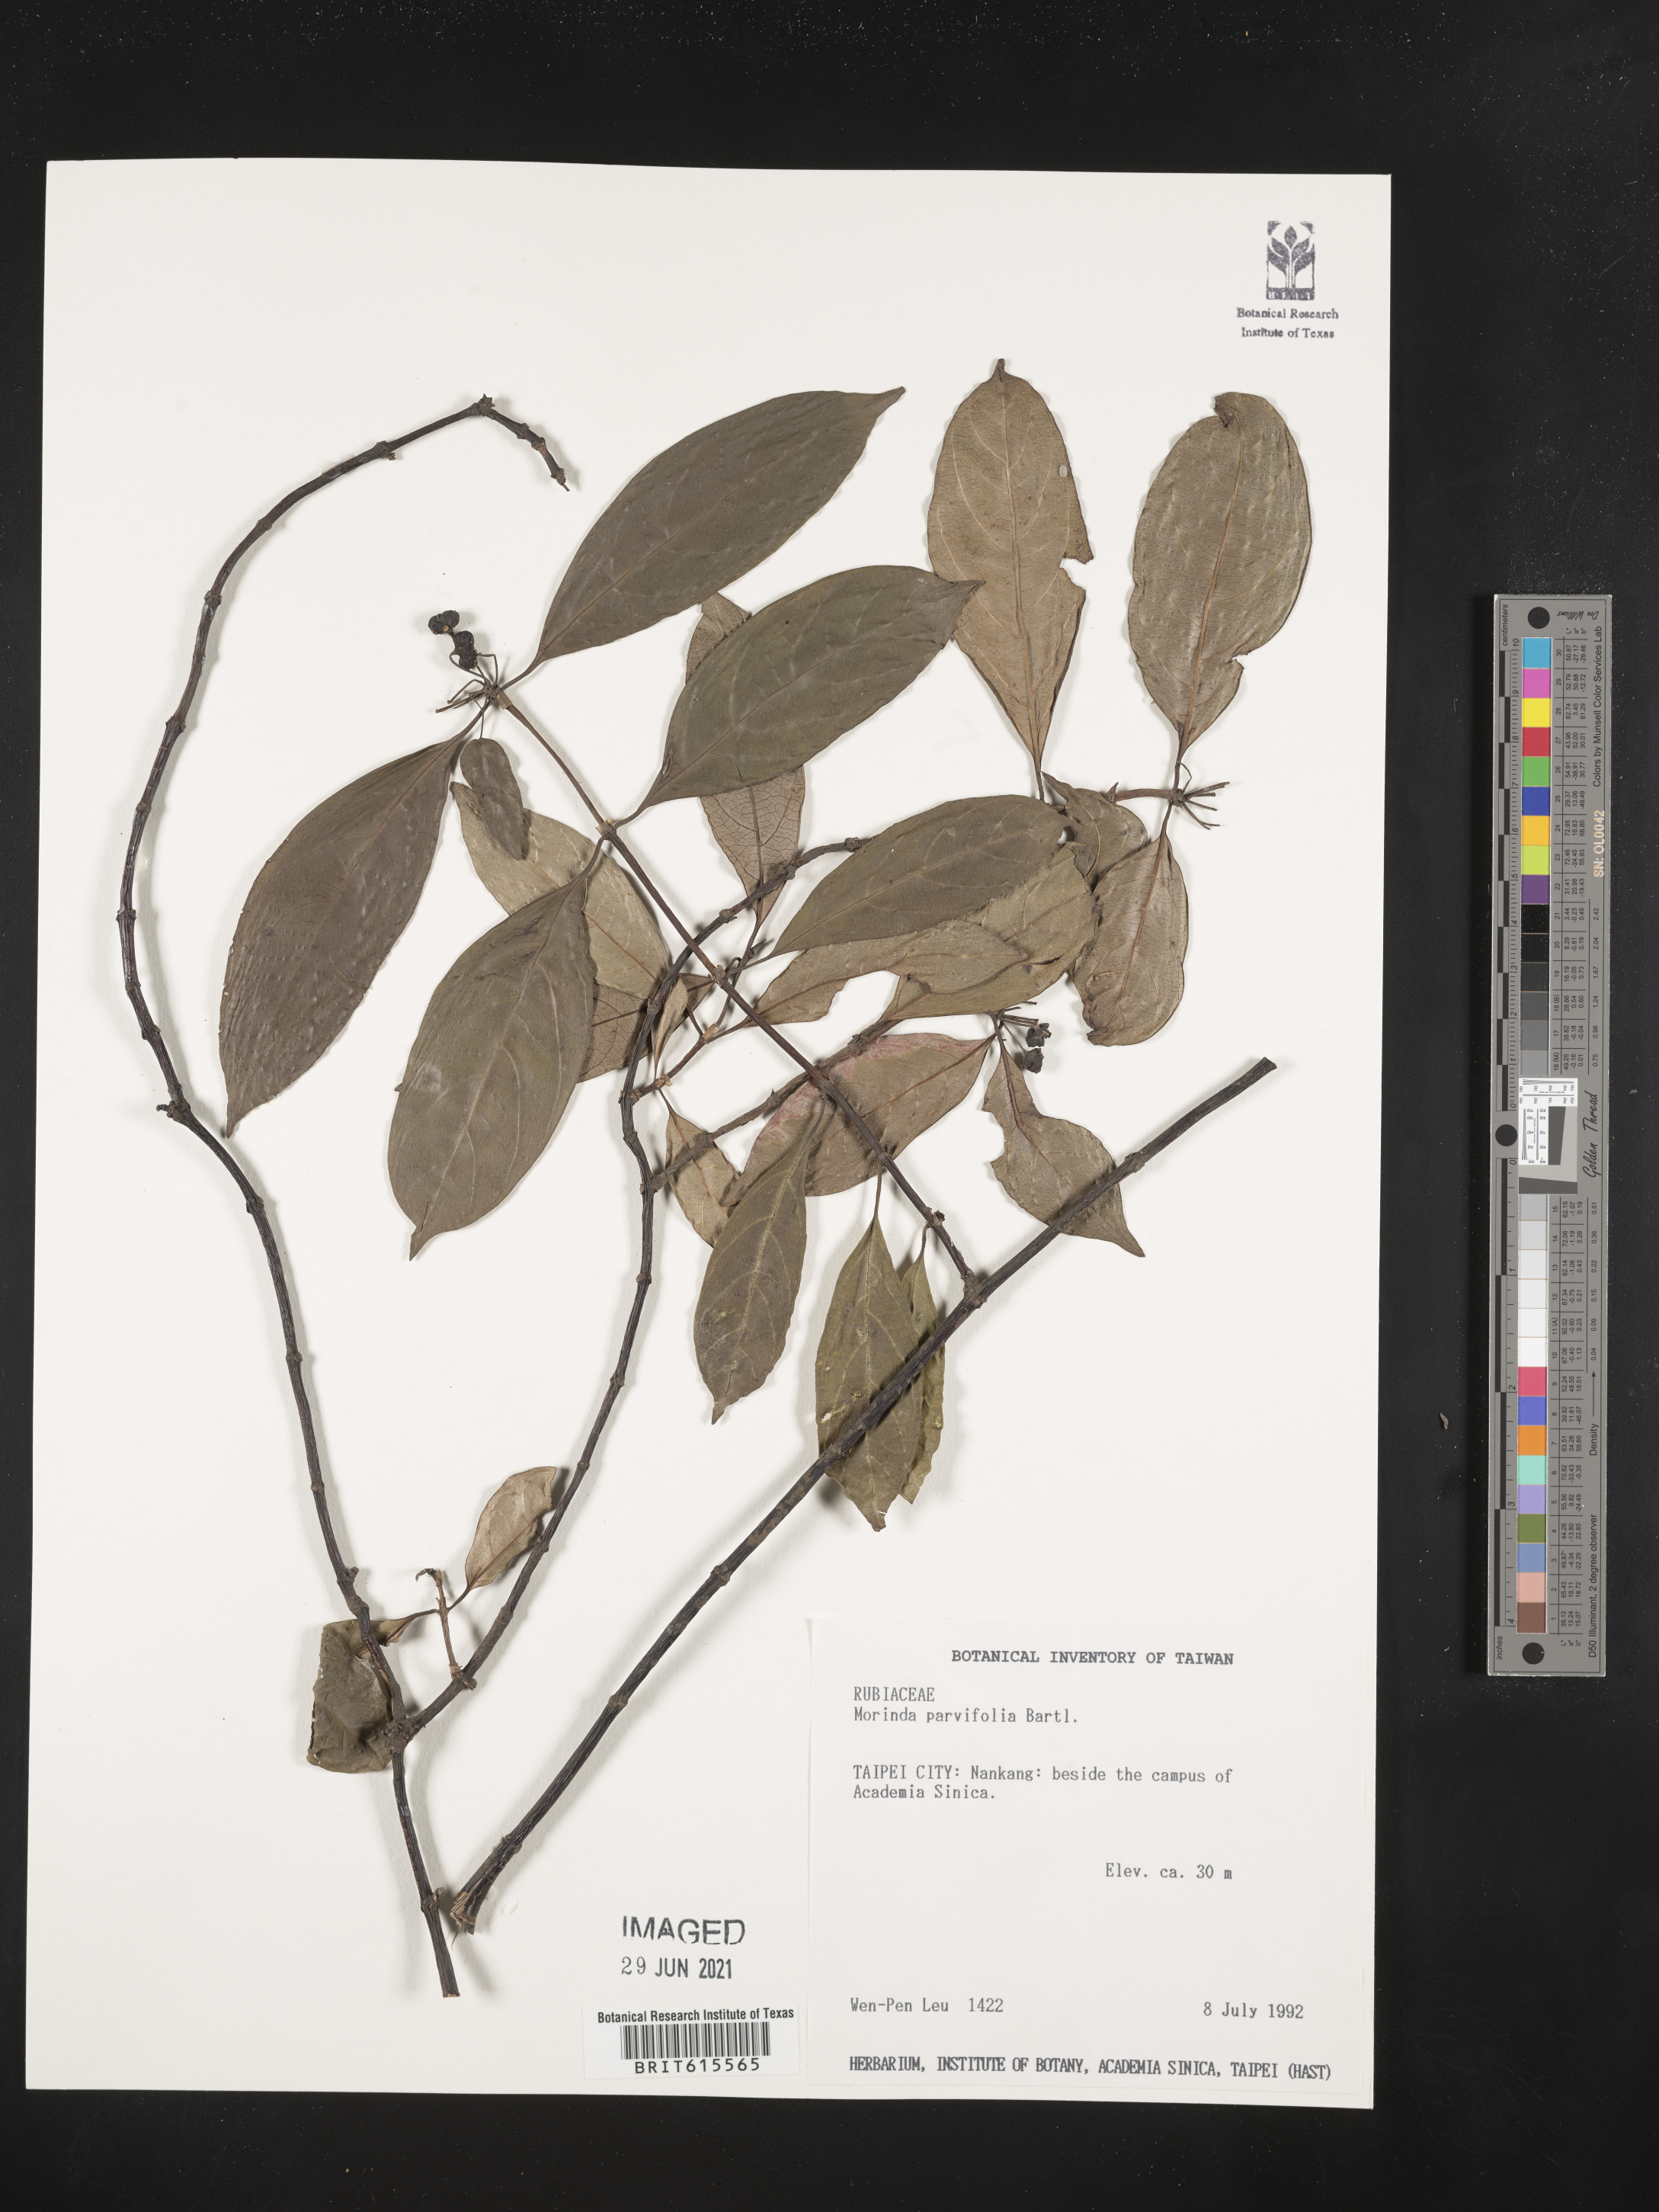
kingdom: Plantae
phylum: Tracheophyta
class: Magnoliopsida
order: Gentianales
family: Rubiaceae
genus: Gynochthodes
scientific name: Gynochthodes parvifolia
